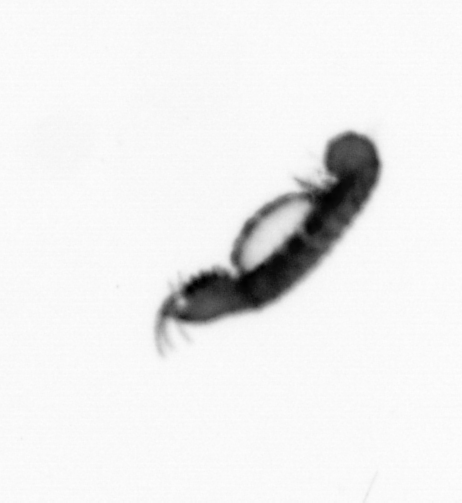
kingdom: Animalia
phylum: Annelida
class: Polychaeta
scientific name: Polychaeta
